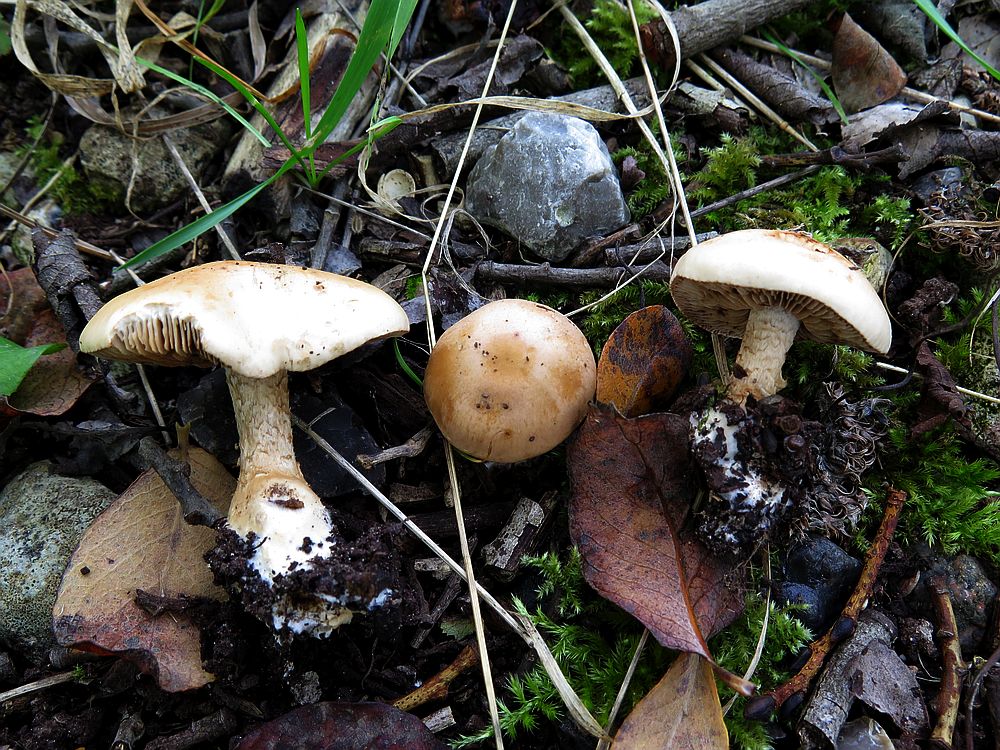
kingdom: Fungi
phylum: Basidiomycota
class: Agaricomycetes
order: Agaricales
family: Hymenogastraceae
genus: Hebeloma
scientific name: Hebeloma laterinum
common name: kakao-tåreblad
